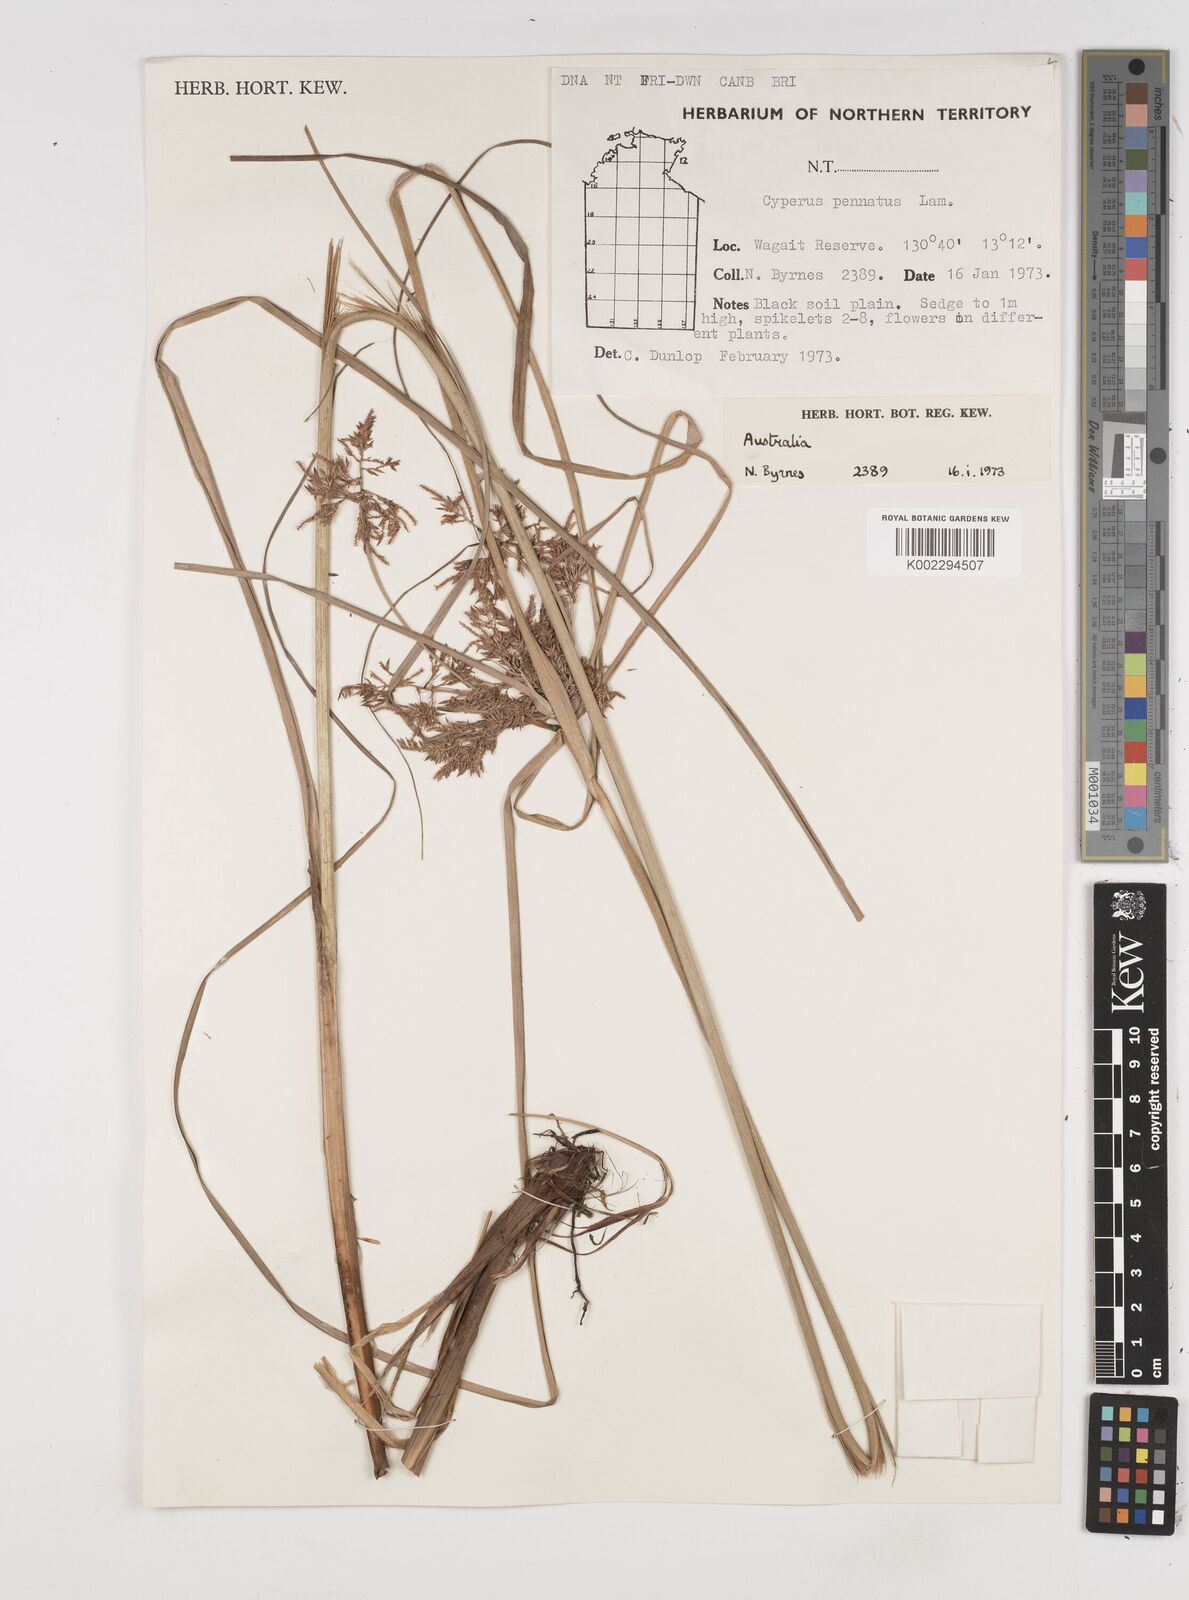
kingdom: Plantae
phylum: Tracheophyta
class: Liliopsida
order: Poales
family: Cyperaceae
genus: Cyperus
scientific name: Cyperus javanicus
